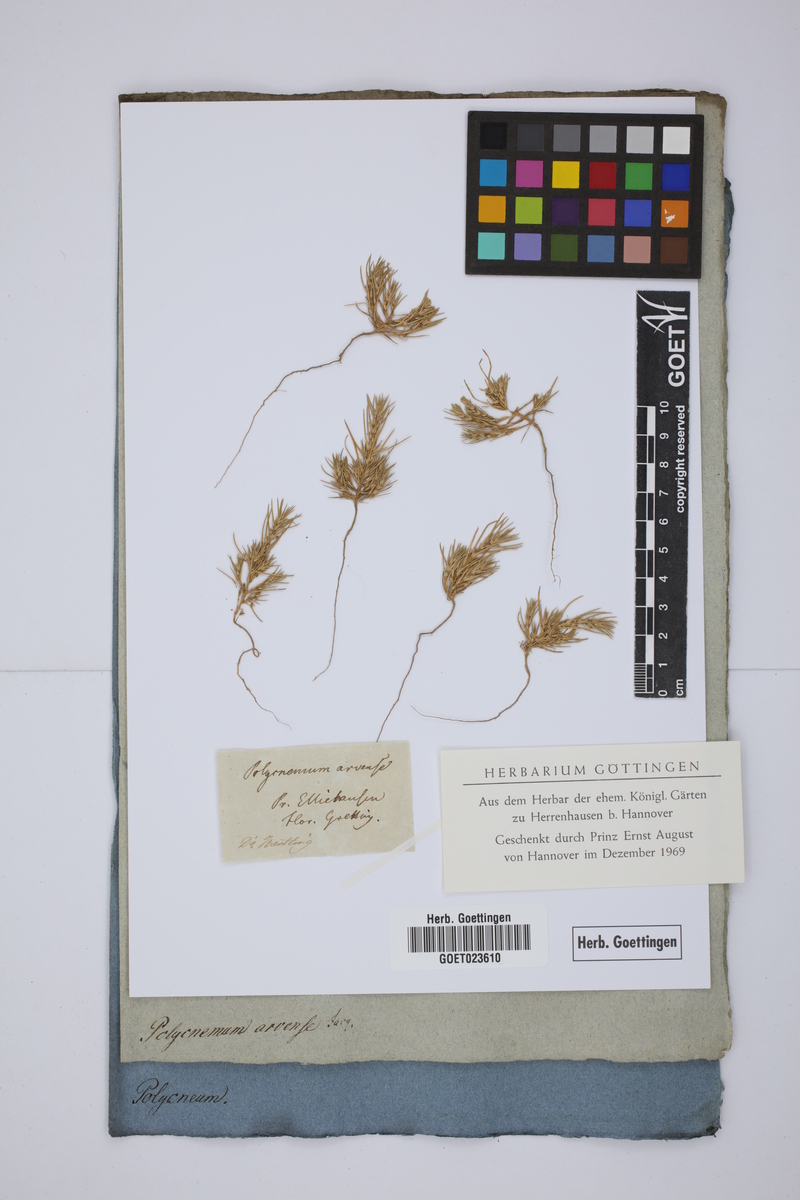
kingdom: Plantae
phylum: Tracheophyta
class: Magnoliopsida
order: Caryophyllales
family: Amaranthaceae
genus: Polycnemum
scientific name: Polycnemum arvense
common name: Soft needleleaf
